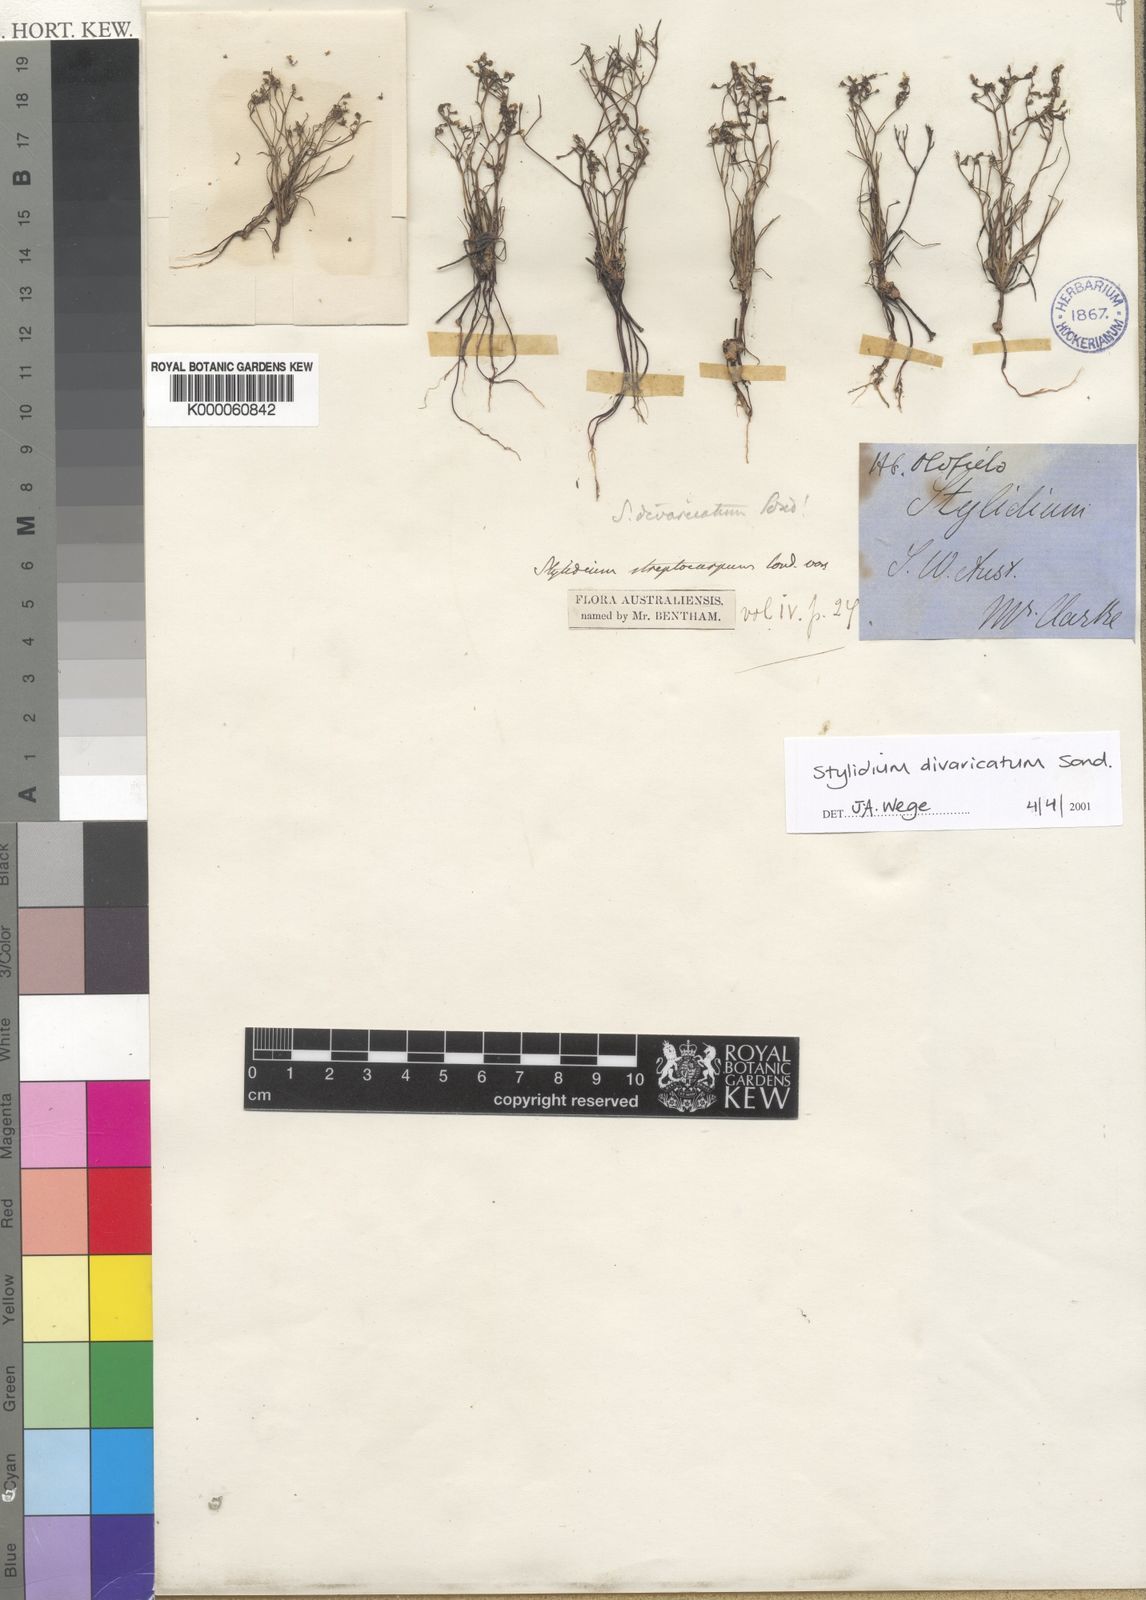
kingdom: Plantae
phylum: Tracheophyta
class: Magnoliopsida
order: Asterales
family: Stylidiaceae
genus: Stylidium
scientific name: Stylidium divaricatum
